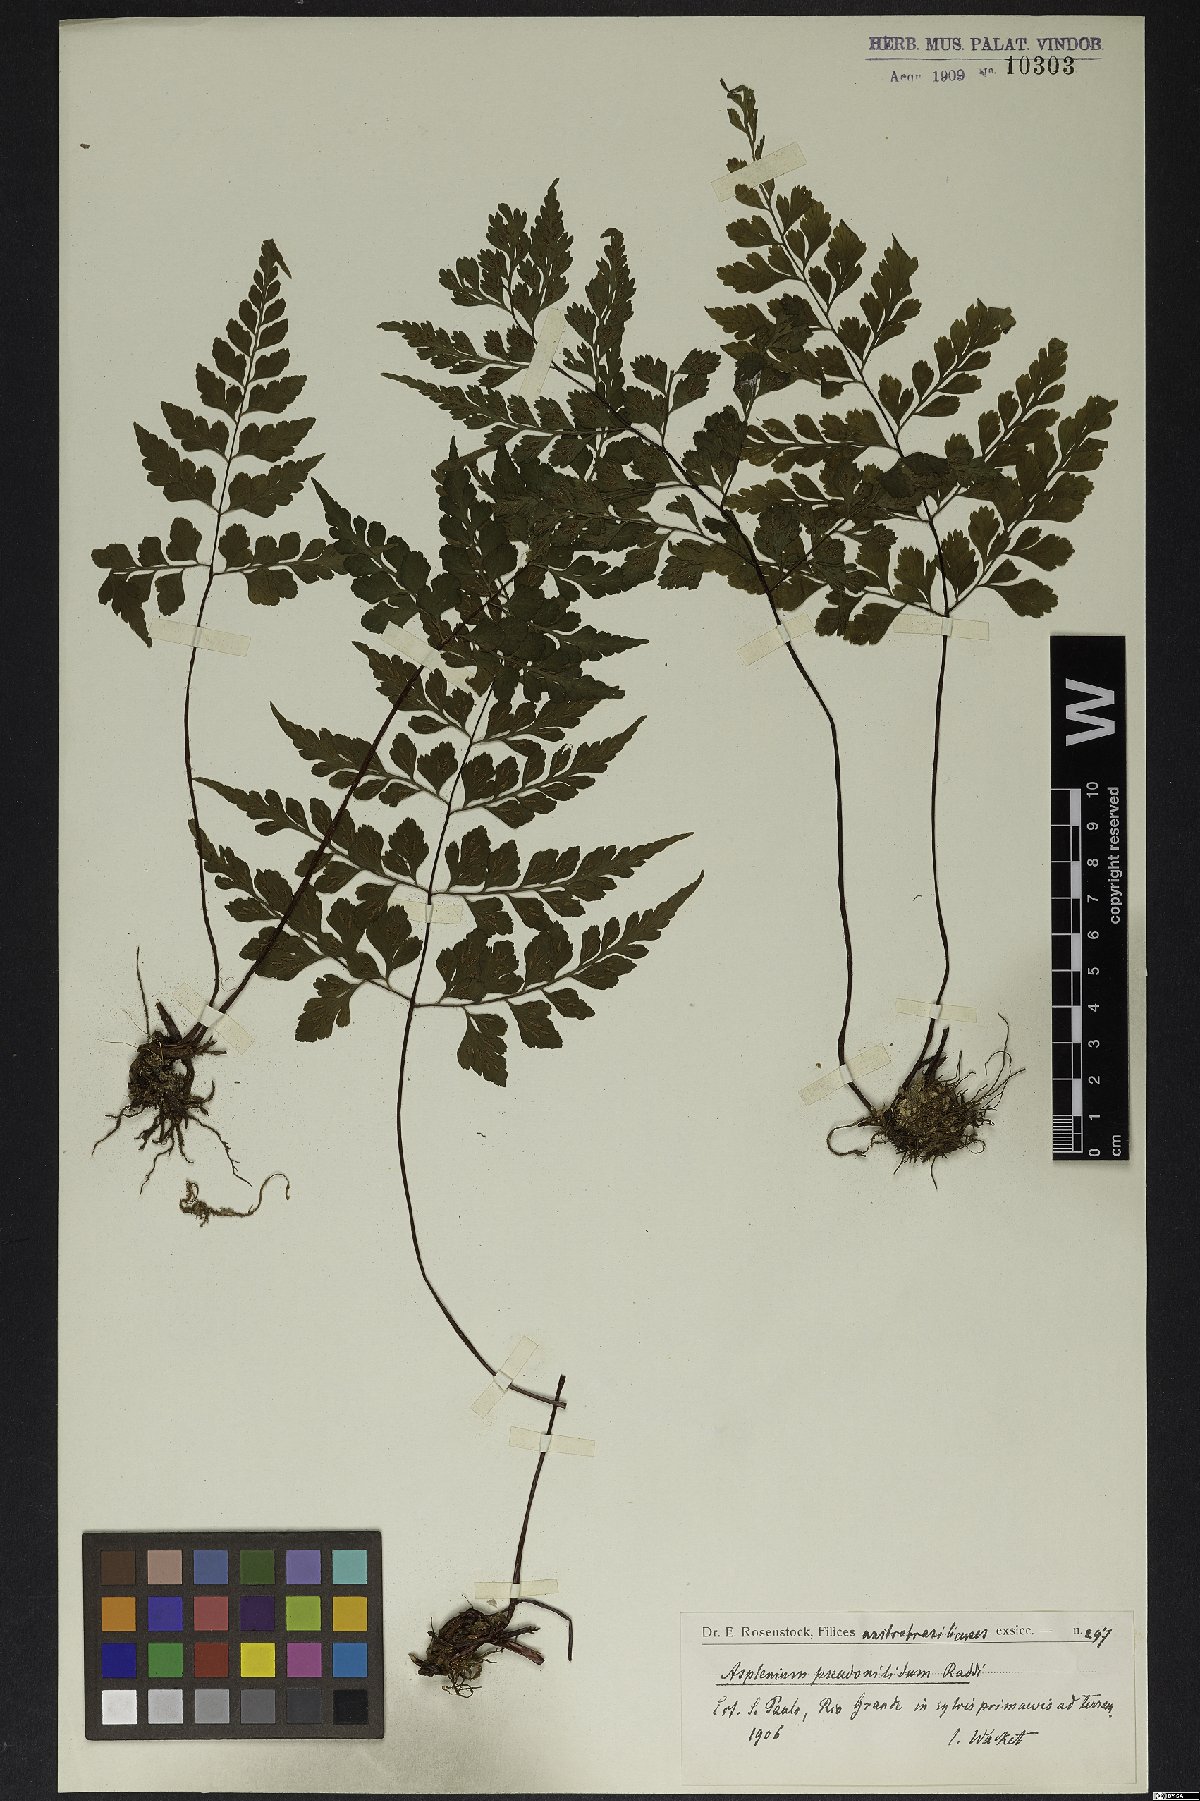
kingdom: Plantae
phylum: Tracheophyta
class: Polypodiopsida
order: Polypodiales
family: Aspleniaceae
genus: Asplenium
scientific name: Asplenium pseudonitidum
